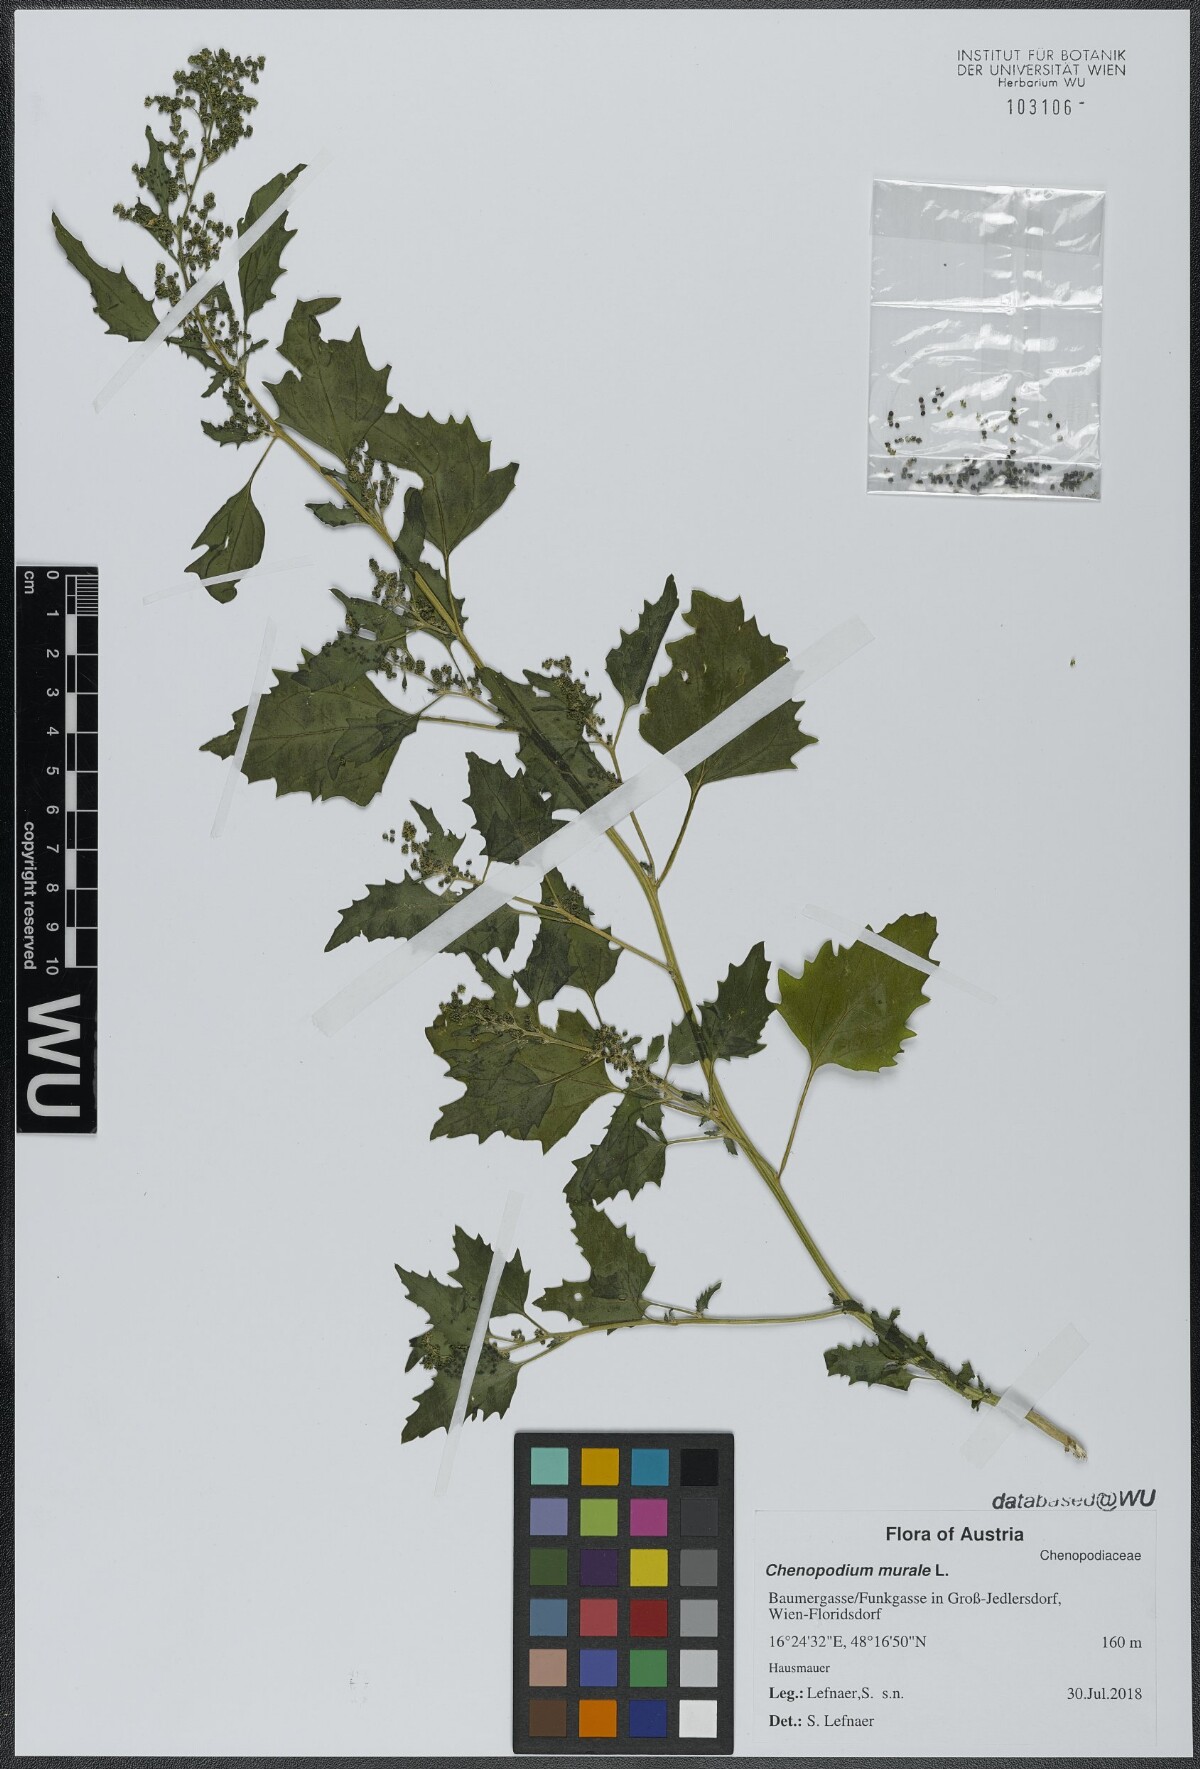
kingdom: Plantae
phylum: Tracheophyta
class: Magnoliopsida
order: Caryophyllales
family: Amaranthaceae
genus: Chenopodiastrum
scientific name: Chenopodiastrum murale
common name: Sowbane
